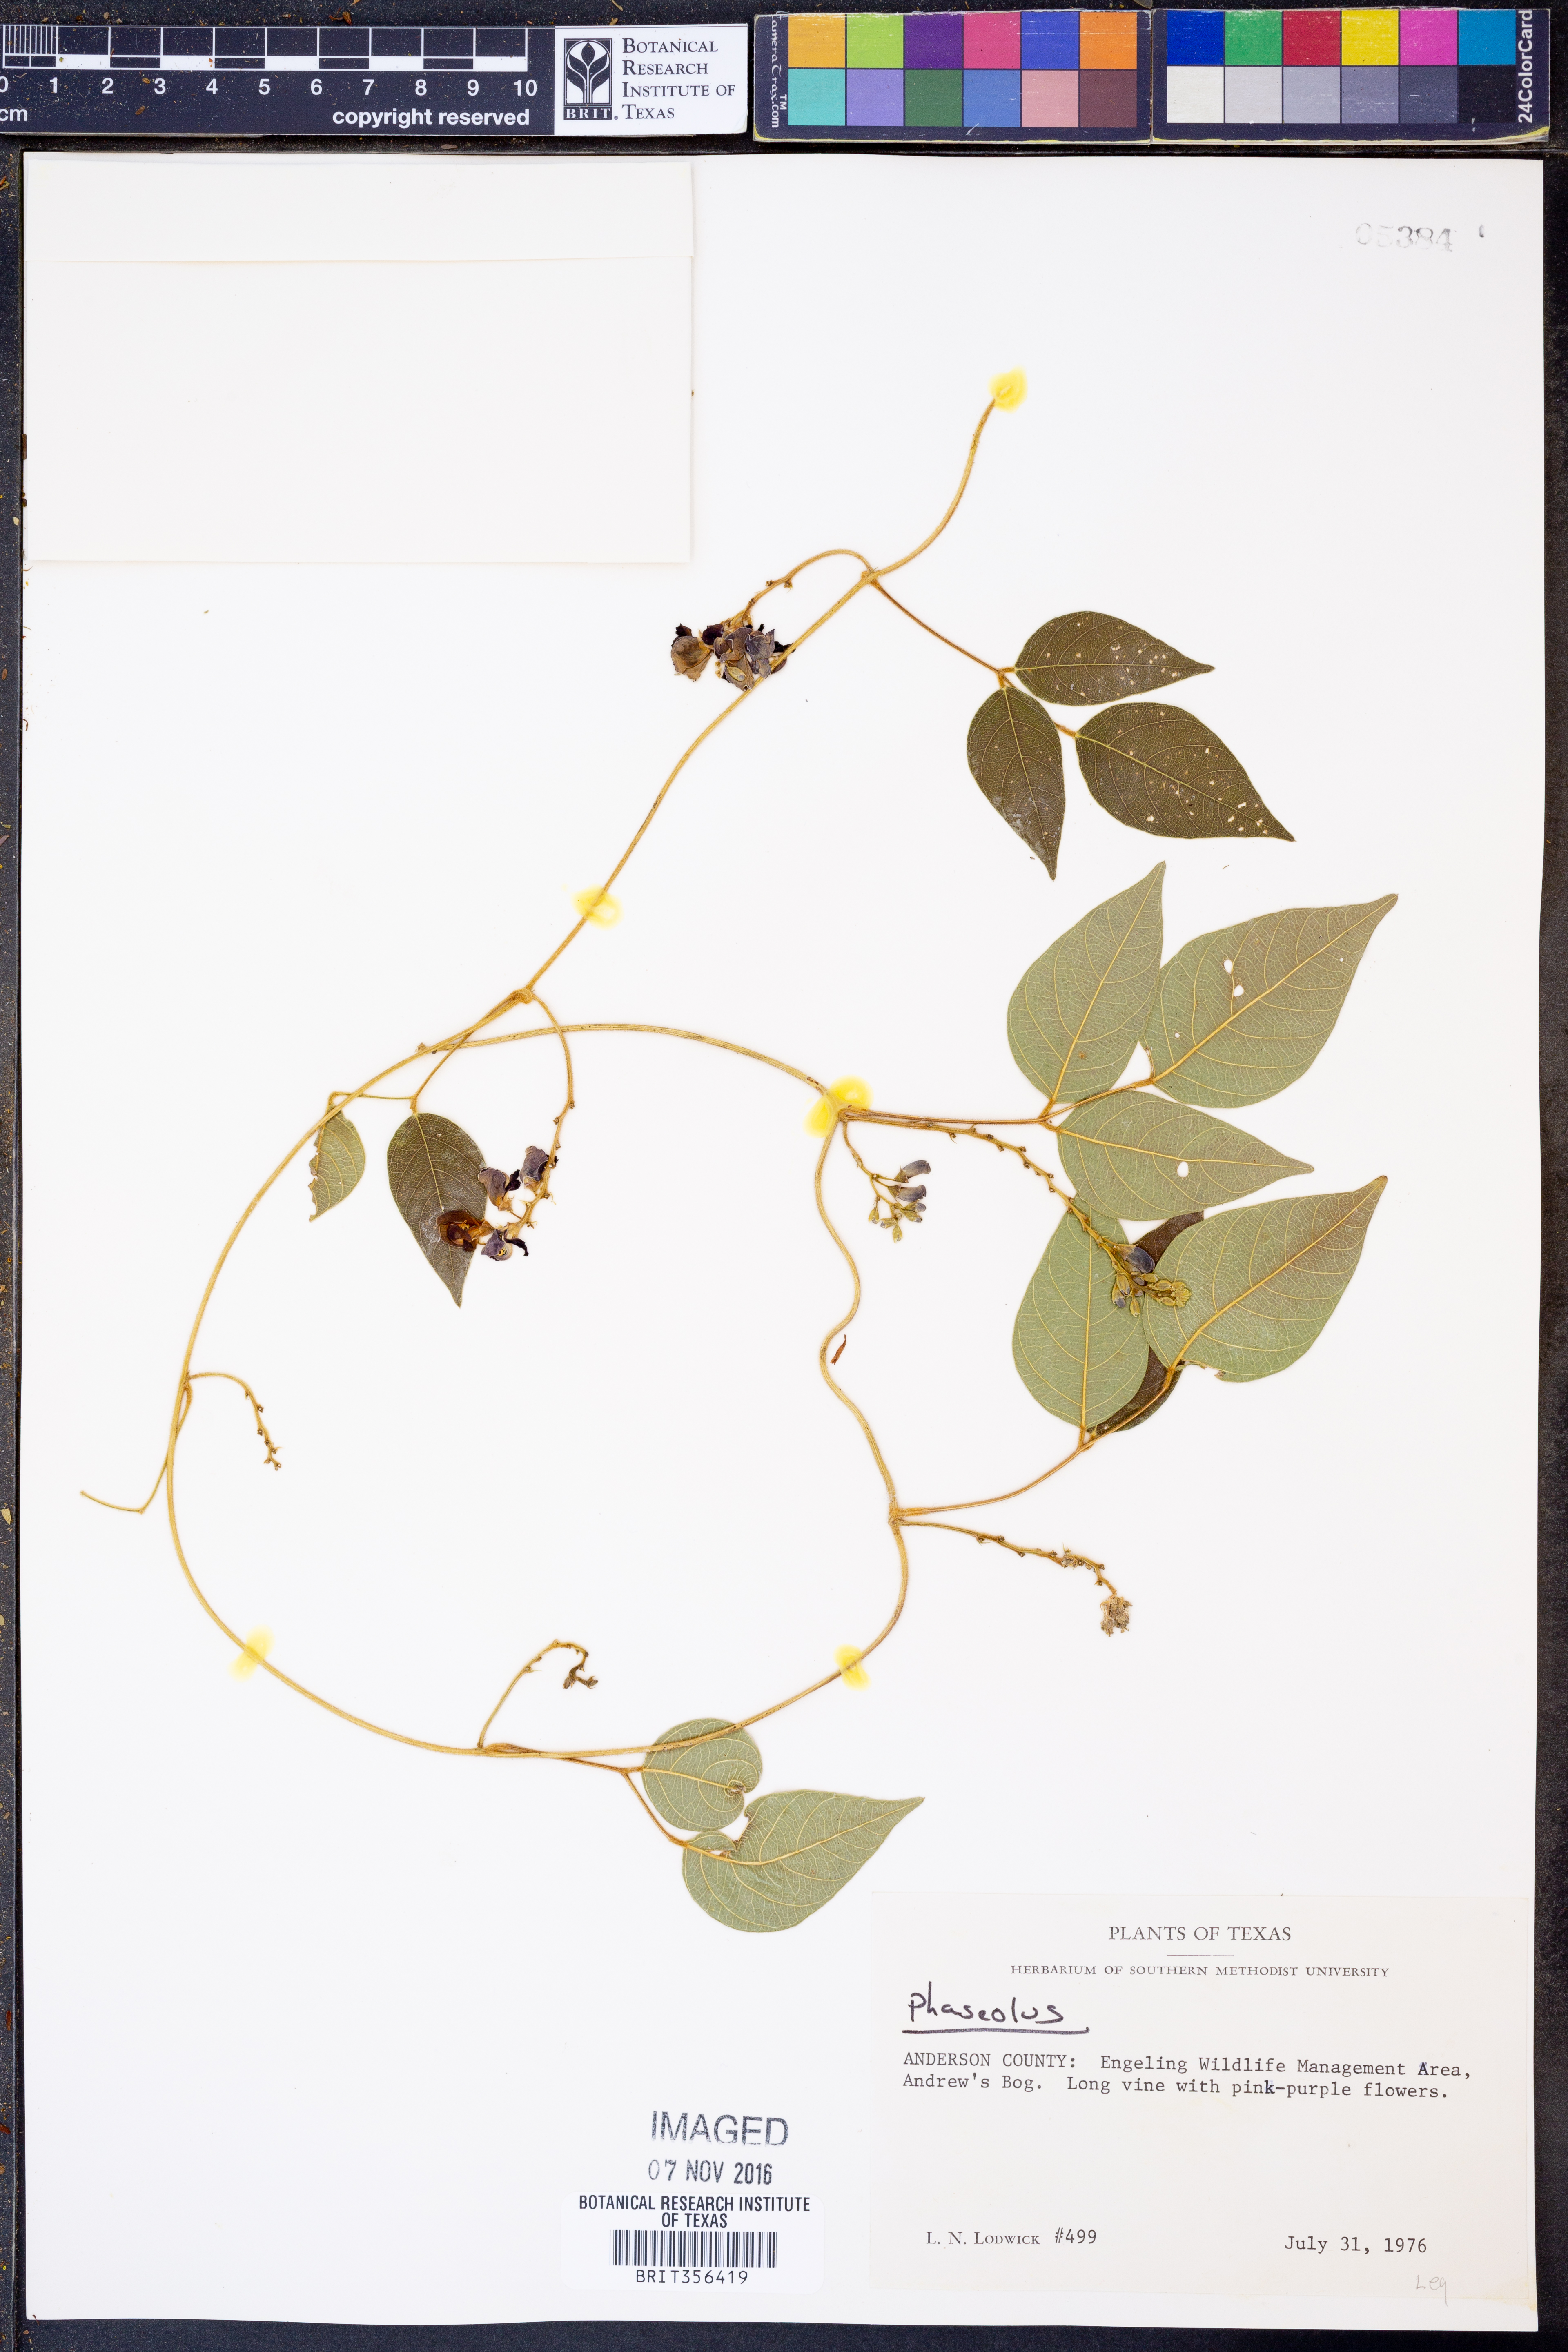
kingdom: Plantae
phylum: Tracheophyta
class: Magnoliopsida
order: Fabales
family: Fabaceae
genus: Phaseolus
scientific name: Phaseolus
